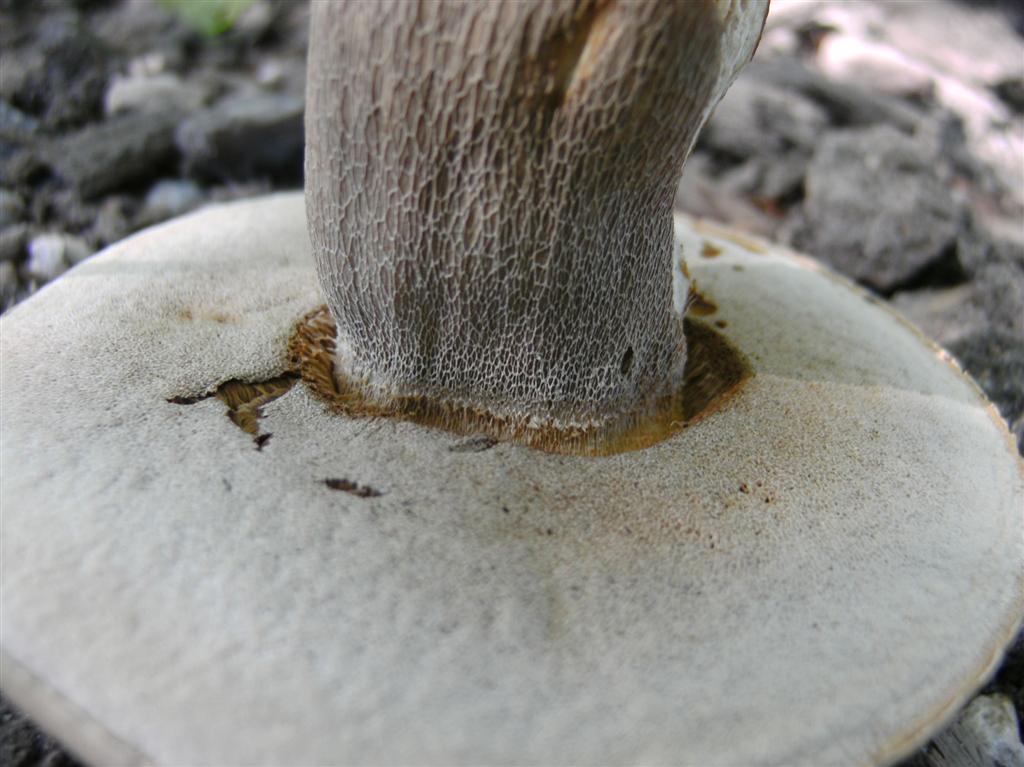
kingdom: Fungi
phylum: Basidiomycota
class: Agaricomycetes
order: Boletales
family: Boletaceae
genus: Boletus
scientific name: Boletus reticulatus
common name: sommer-rørhat
